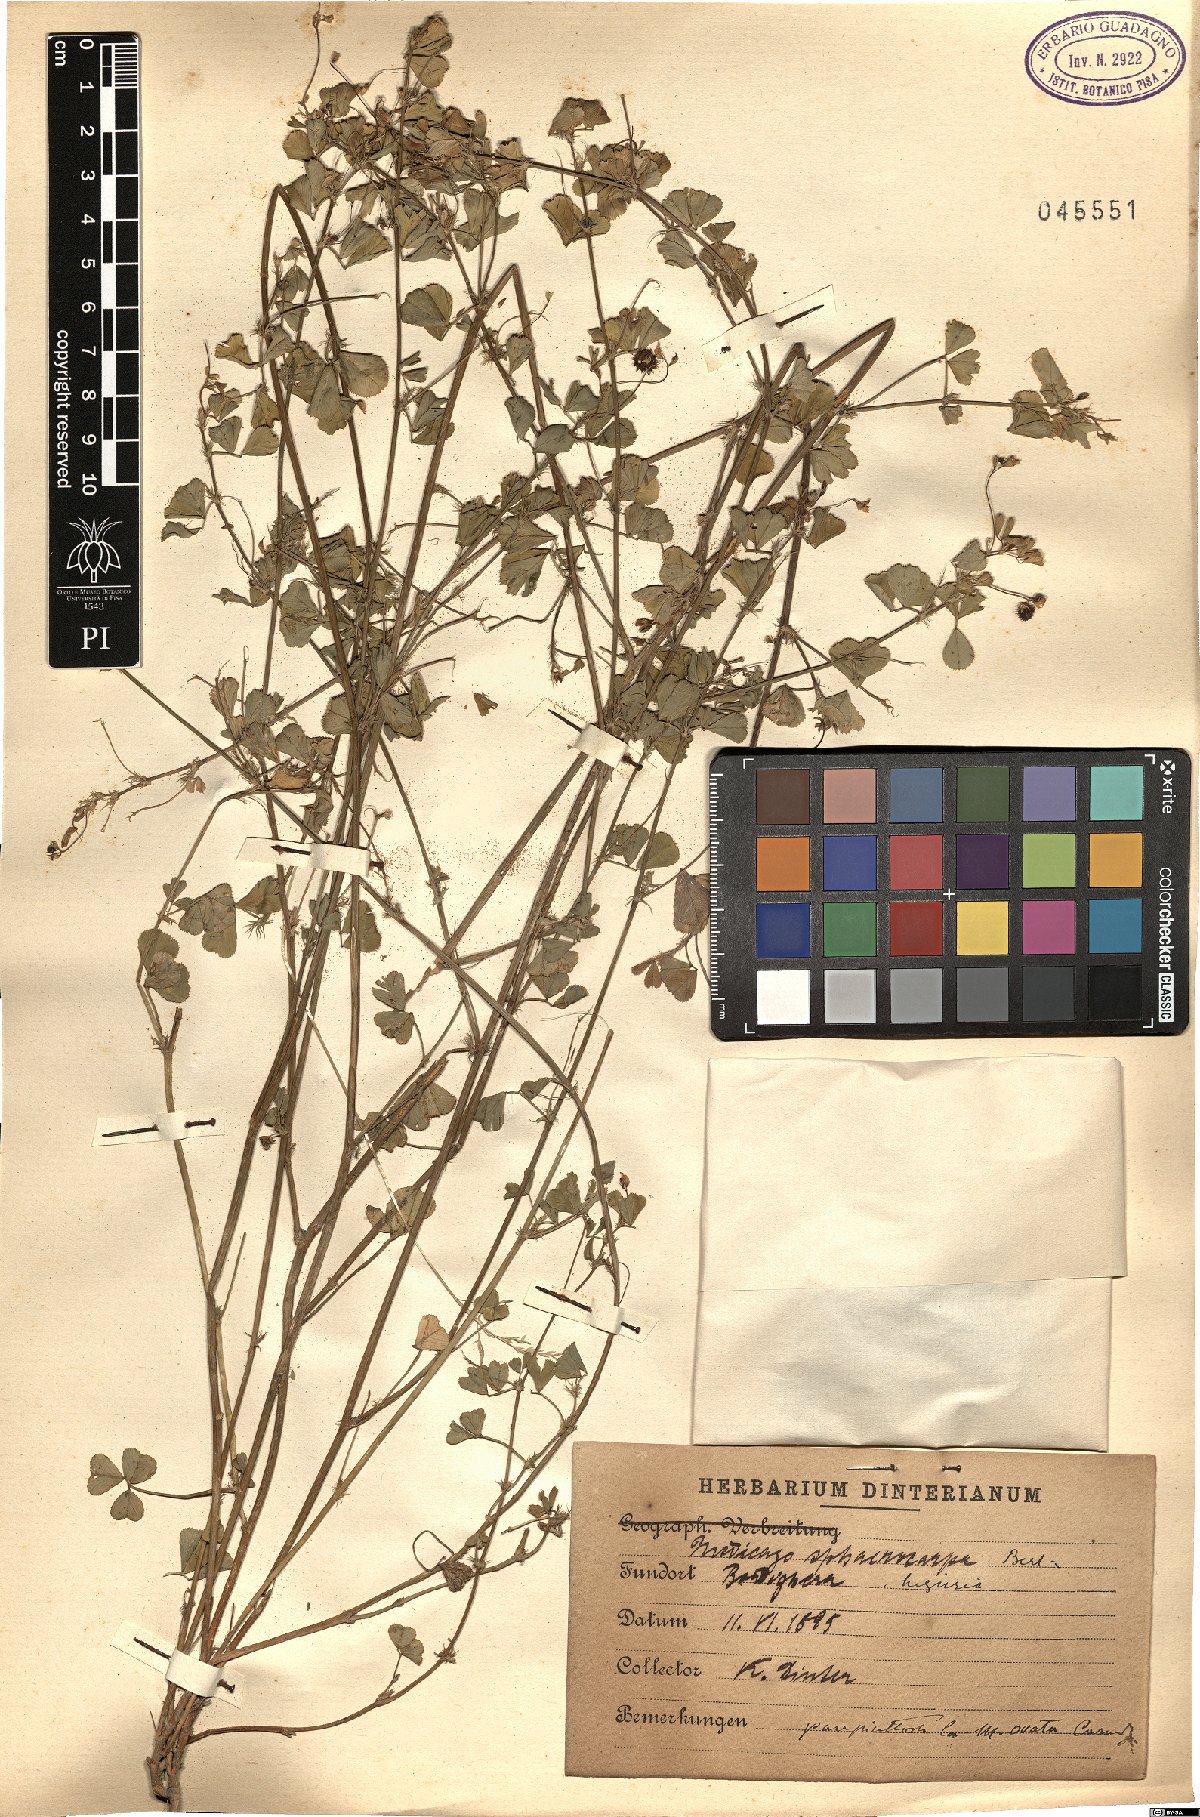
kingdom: Plantae
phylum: Tracheophyta
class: Magnoliopsida
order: Fabales
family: Fabaceae
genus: Medicago
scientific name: Medicago sphaerocarpos
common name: Sphere medic
